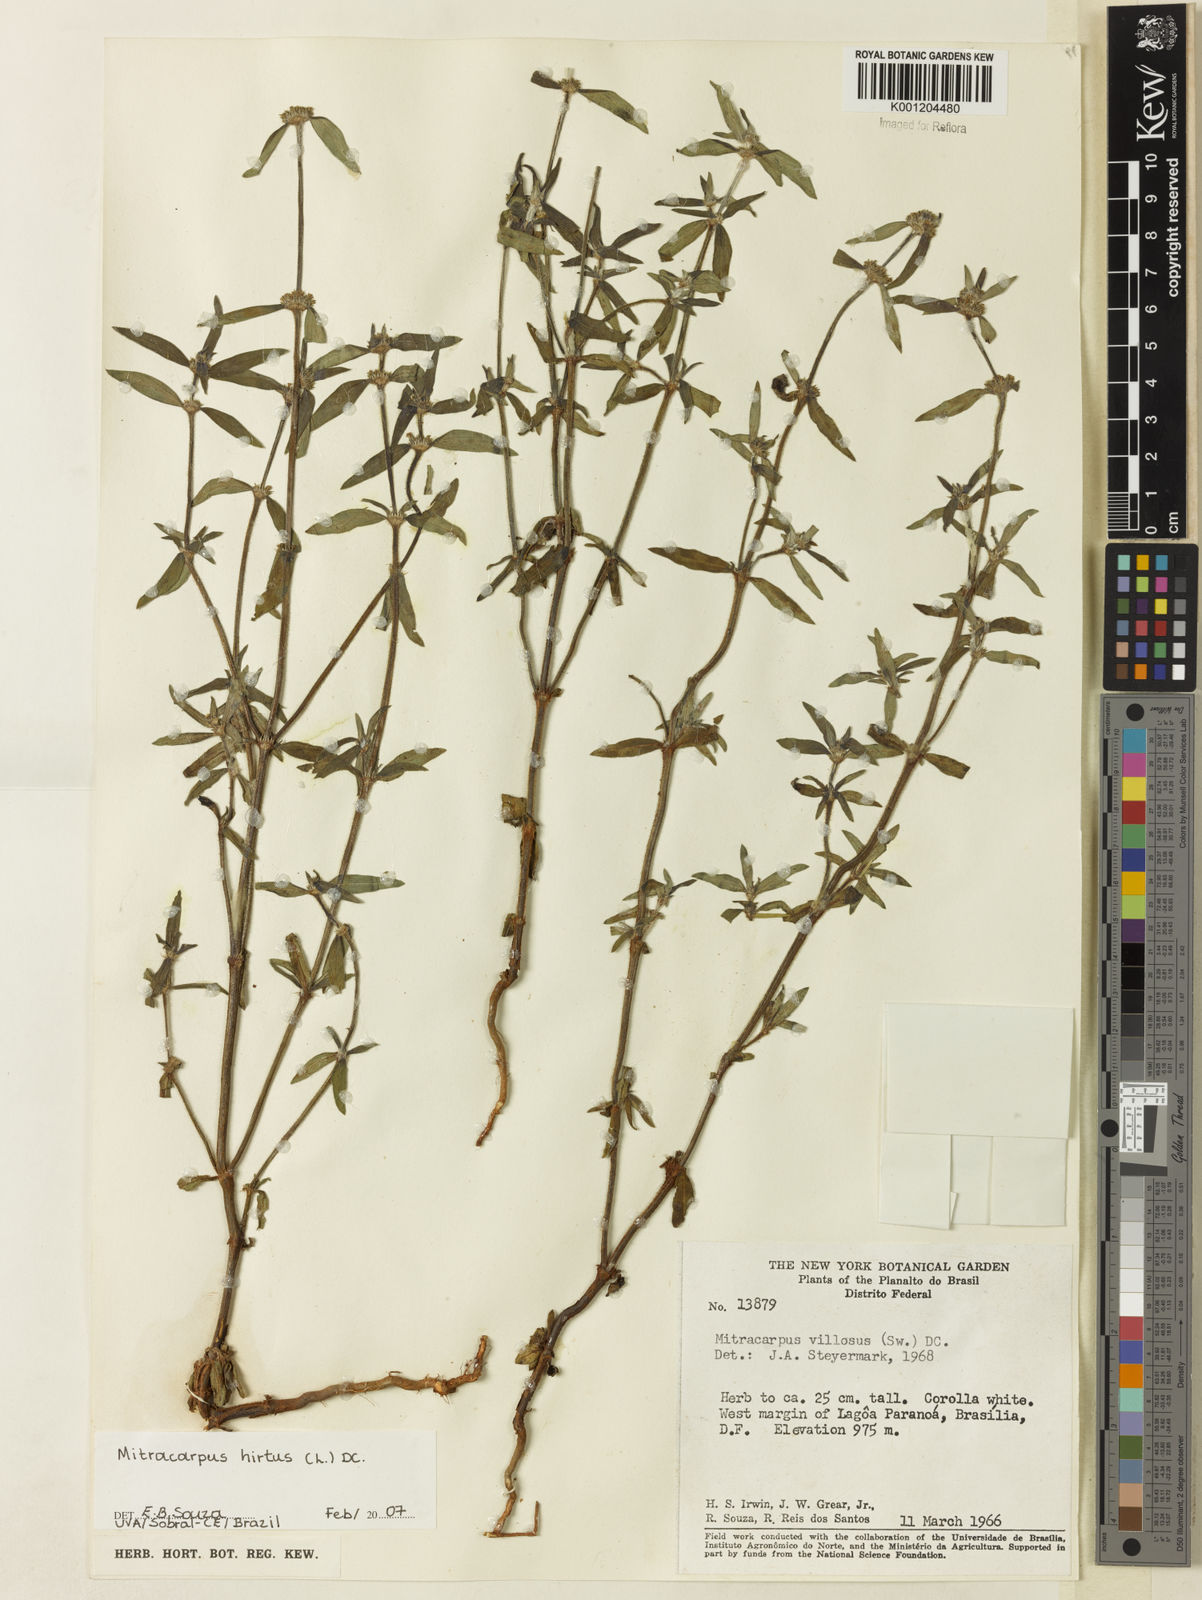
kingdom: Plantae
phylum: Tracheophyta
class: Magnoliopsida
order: Gentianales
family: Rubiaceae
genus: Mitracarpus
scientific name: Mitracarpus hirtus
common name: Tropical girdlepod
